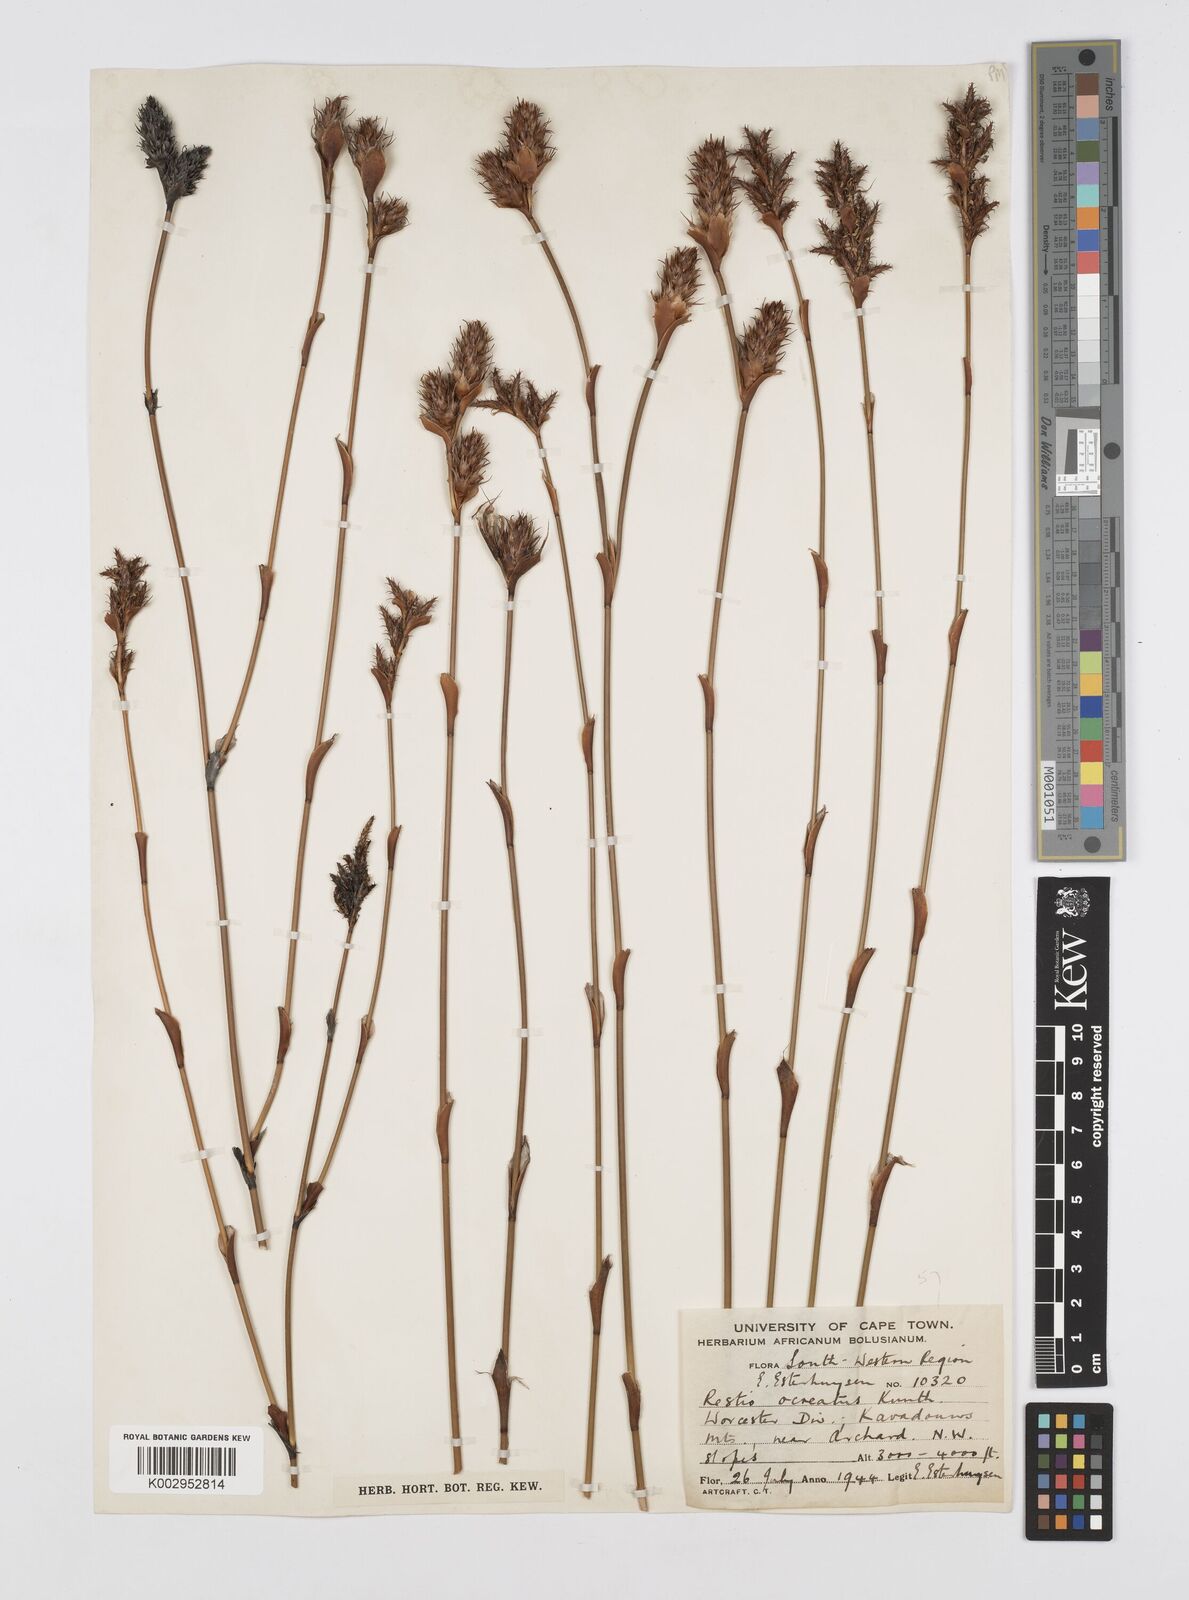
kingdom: Plantae
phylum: Tracheophyta
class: Liliopsida
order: Poales
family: Restionaceae
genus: Restio
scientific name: Restio ocreatus
